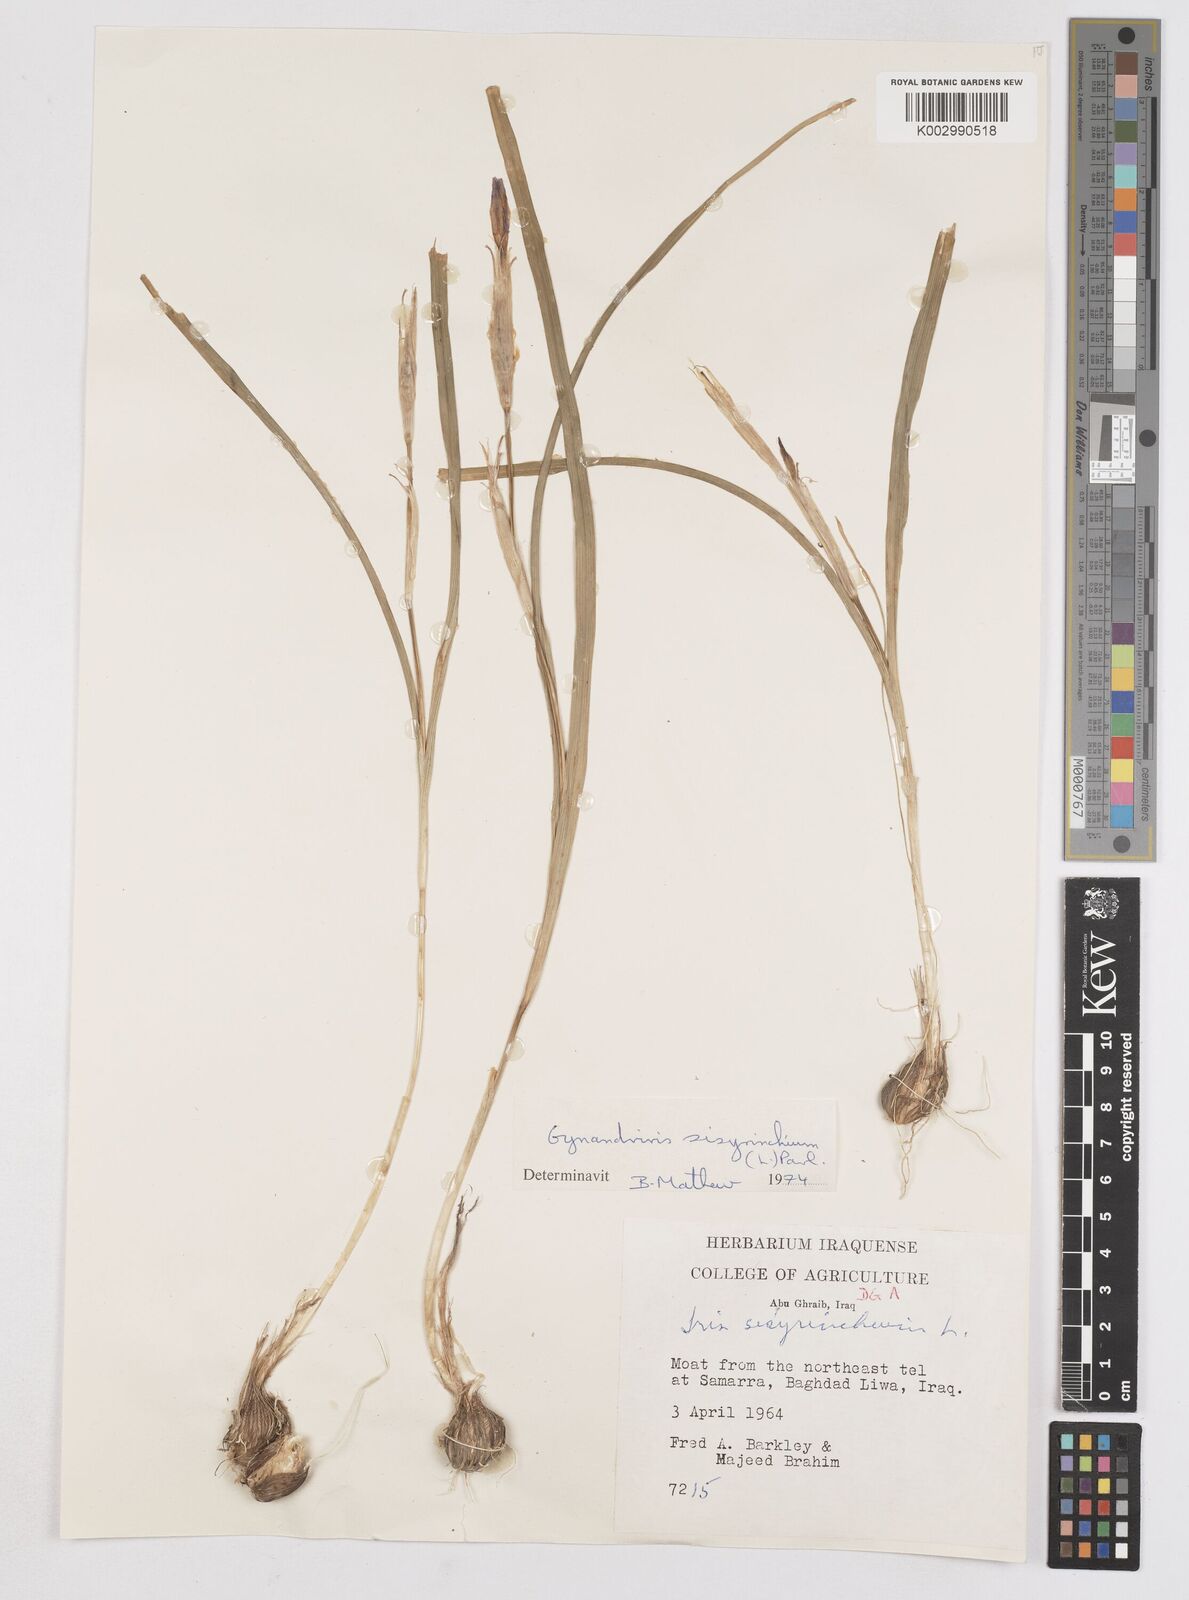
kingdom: Plantae
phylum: Tracheophyta
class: Liliopsida
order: Asparagales
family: Iridaceae
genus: Moraea
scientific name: Moraea sisyrinchium
